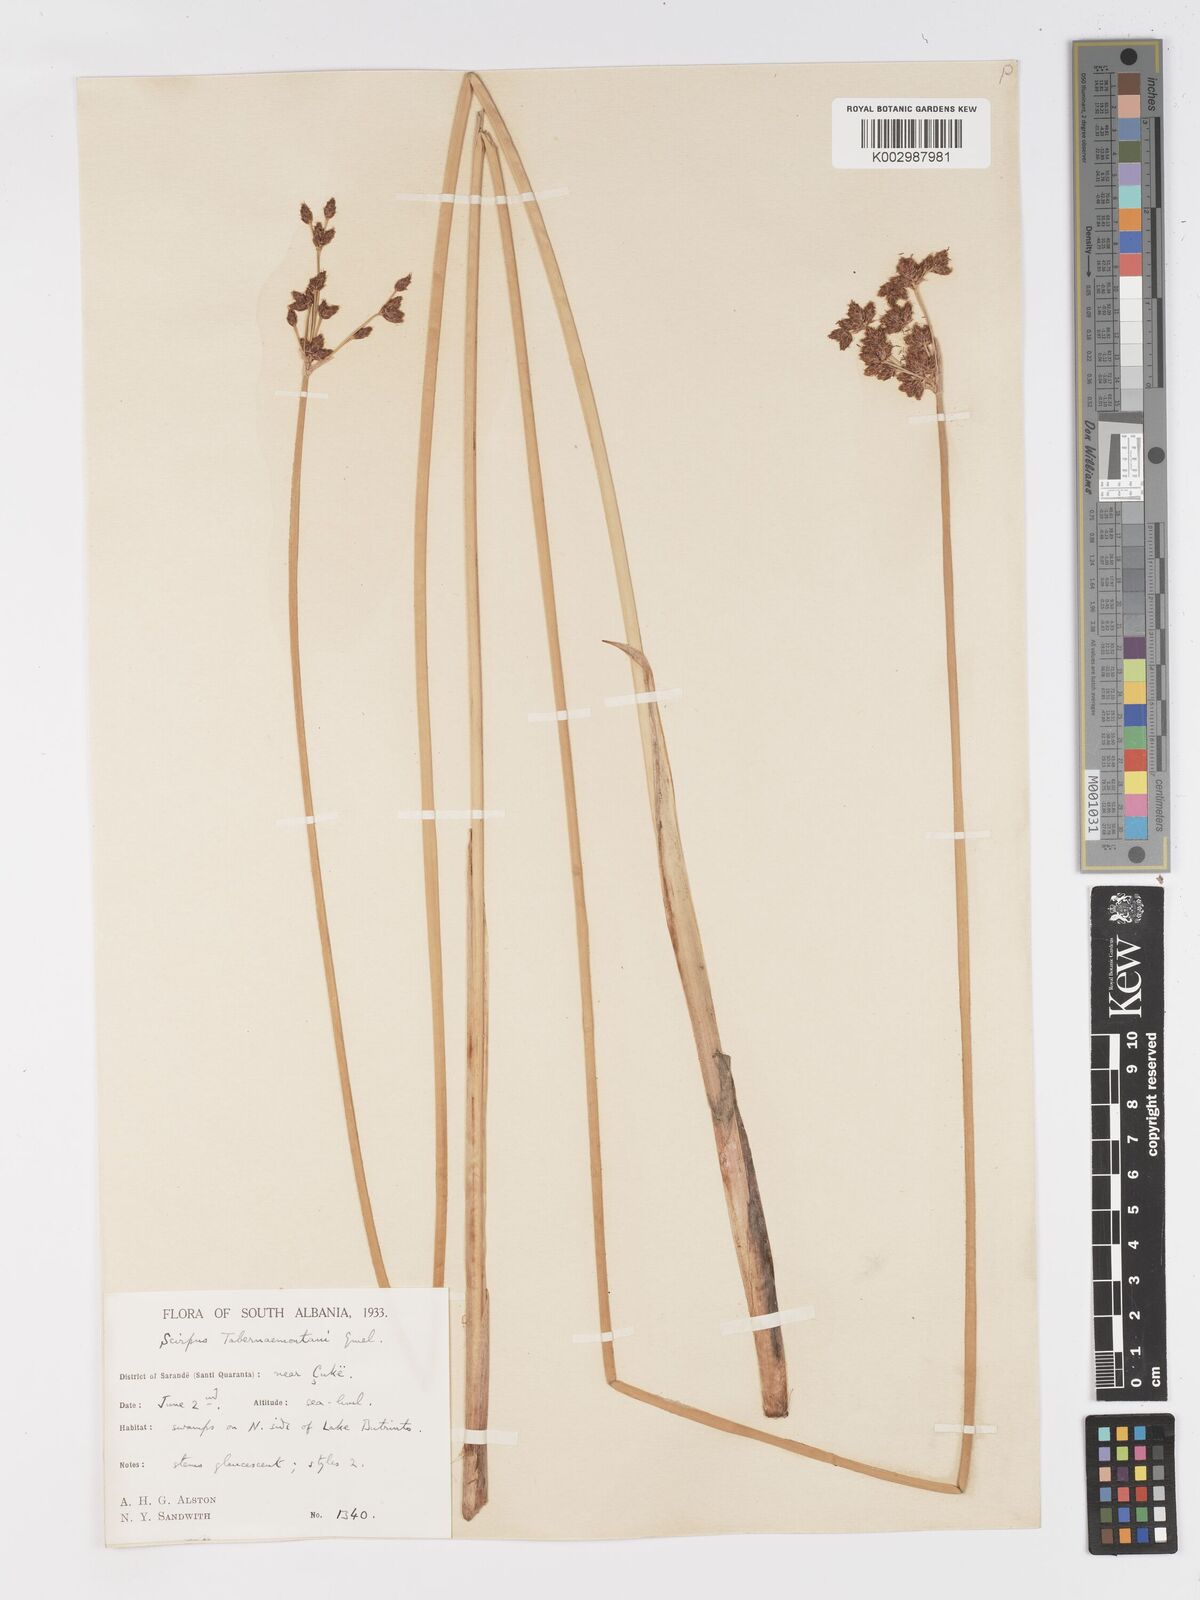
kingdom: Plantae
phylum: Tracheophyta
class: Liliopsida
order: Poales
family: Cyperaceae
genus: Schoenoplectus
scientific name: Schoenoplectus tabernaemontani
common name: Grey club-rush
